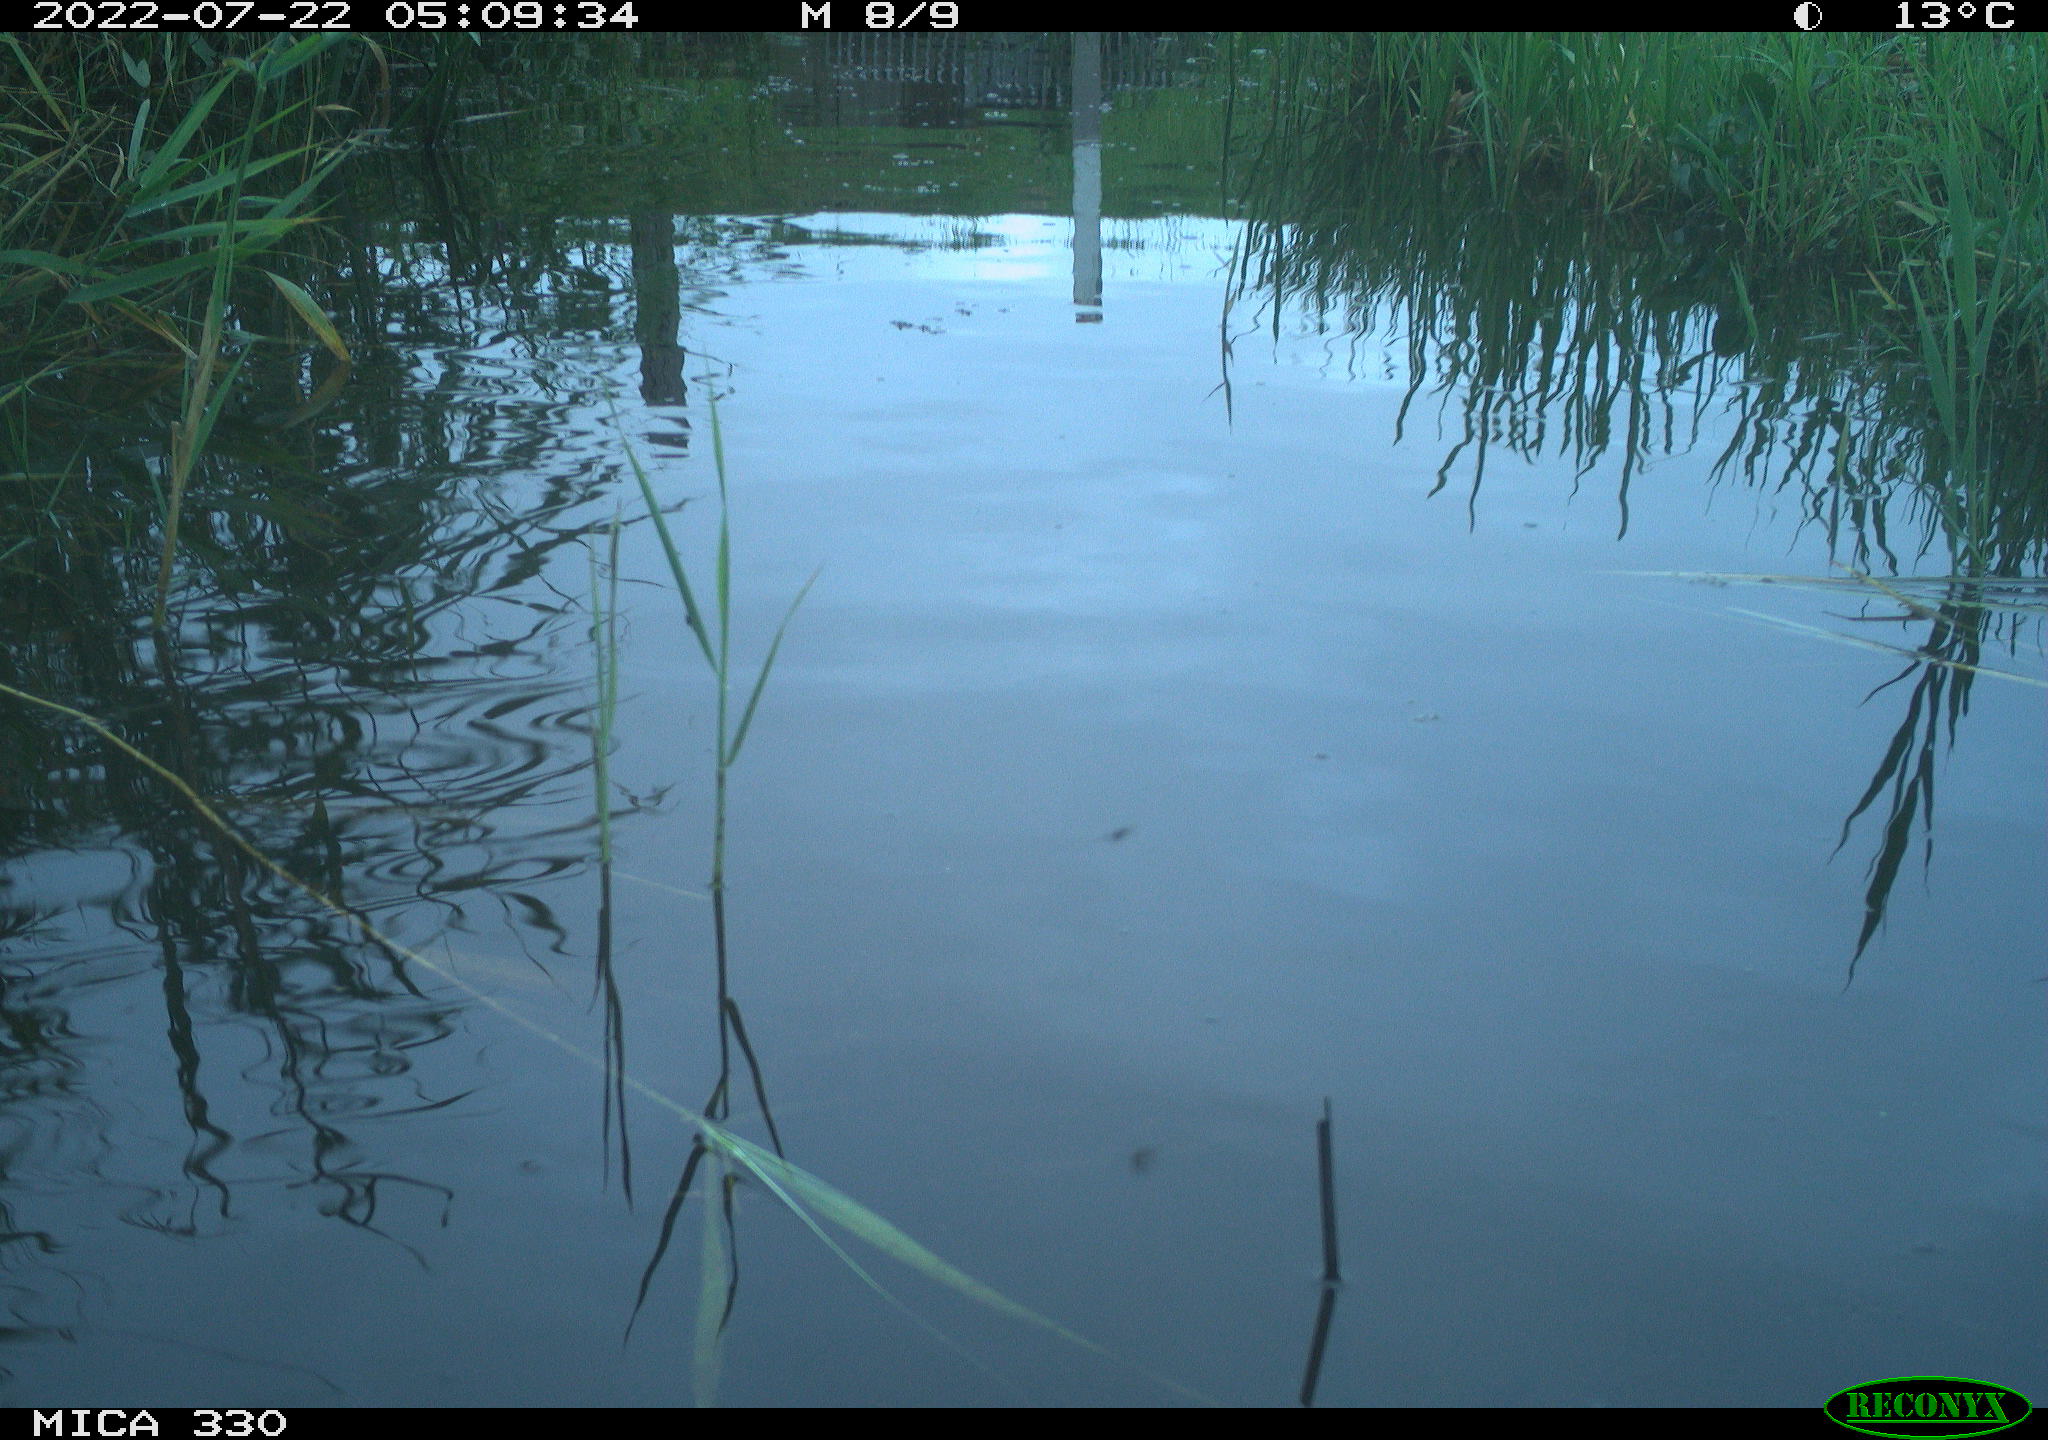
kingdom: Animalia
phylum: Chordata
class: Aves
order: Anseriformes
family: Anatidae
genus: Mareca
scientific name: Mareca strepera
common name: Gadwall
